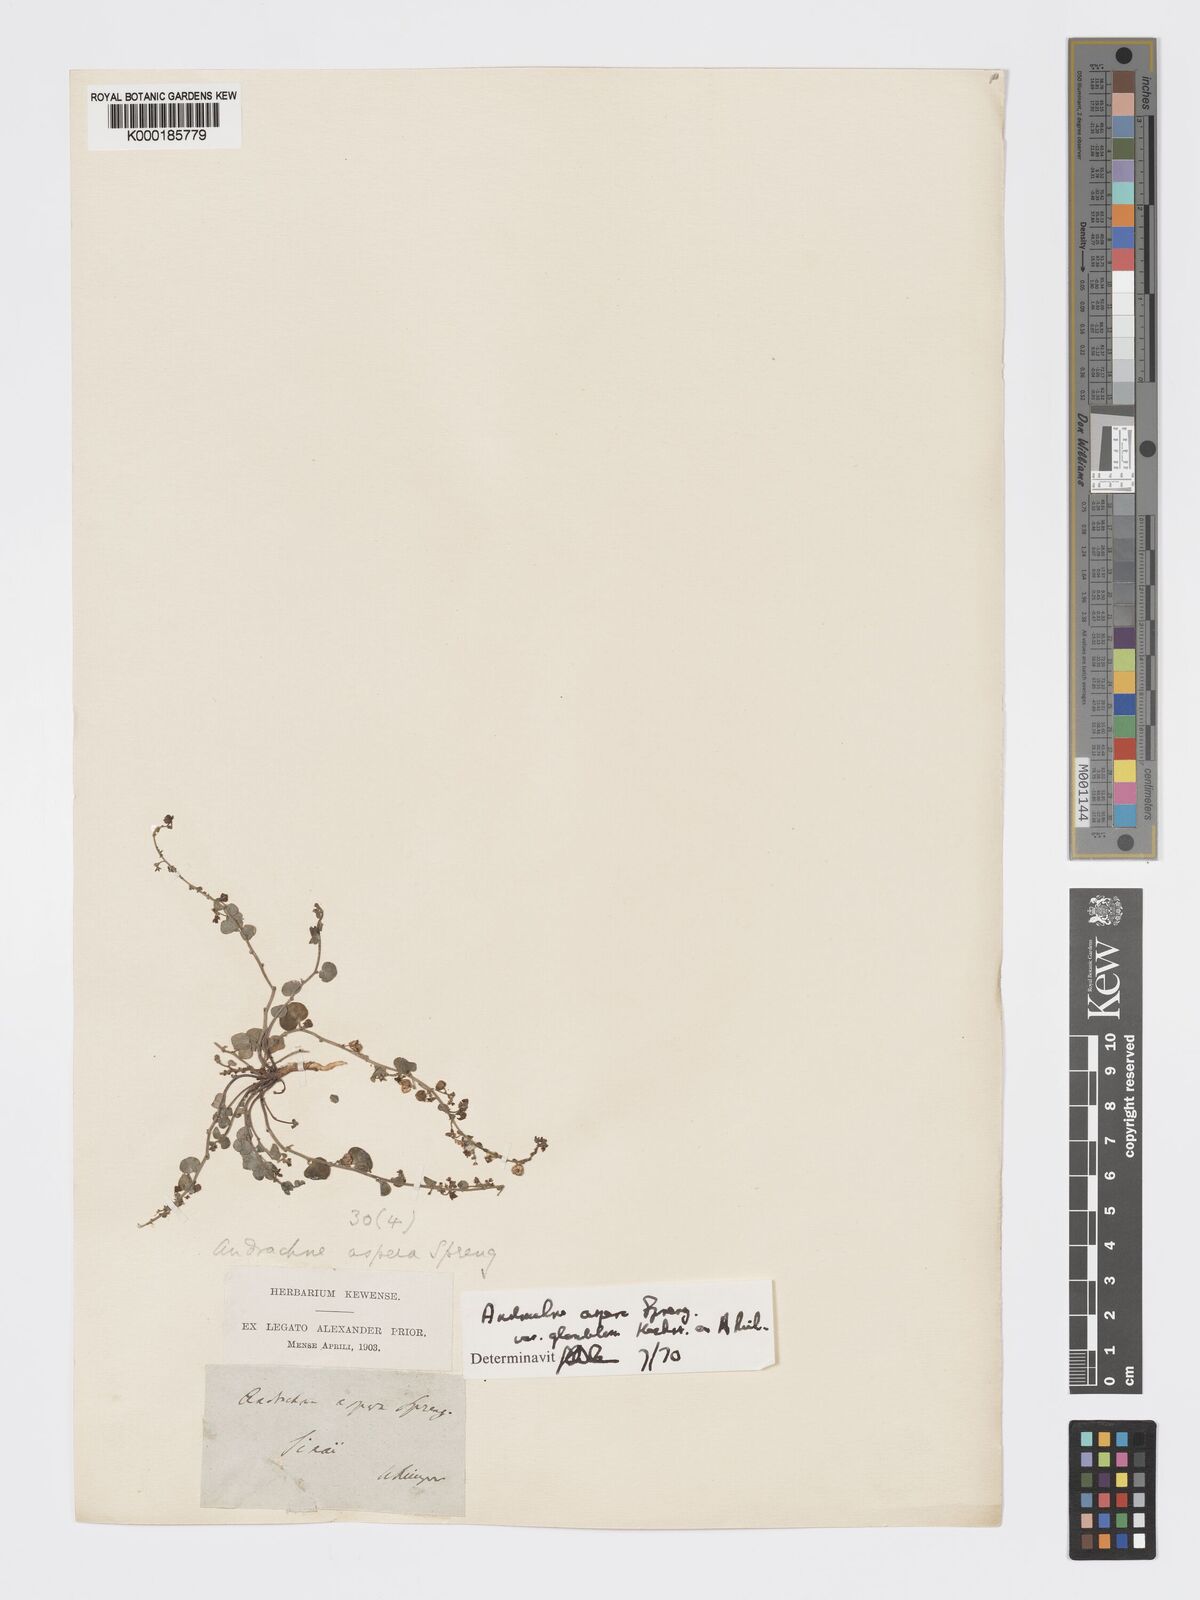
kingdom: Plantae
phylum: Tracheophyta
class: Magnoliopsida
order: Malpighiales
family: Phyllanthaceae
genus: Andrachne
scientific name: Andrachne aspera
